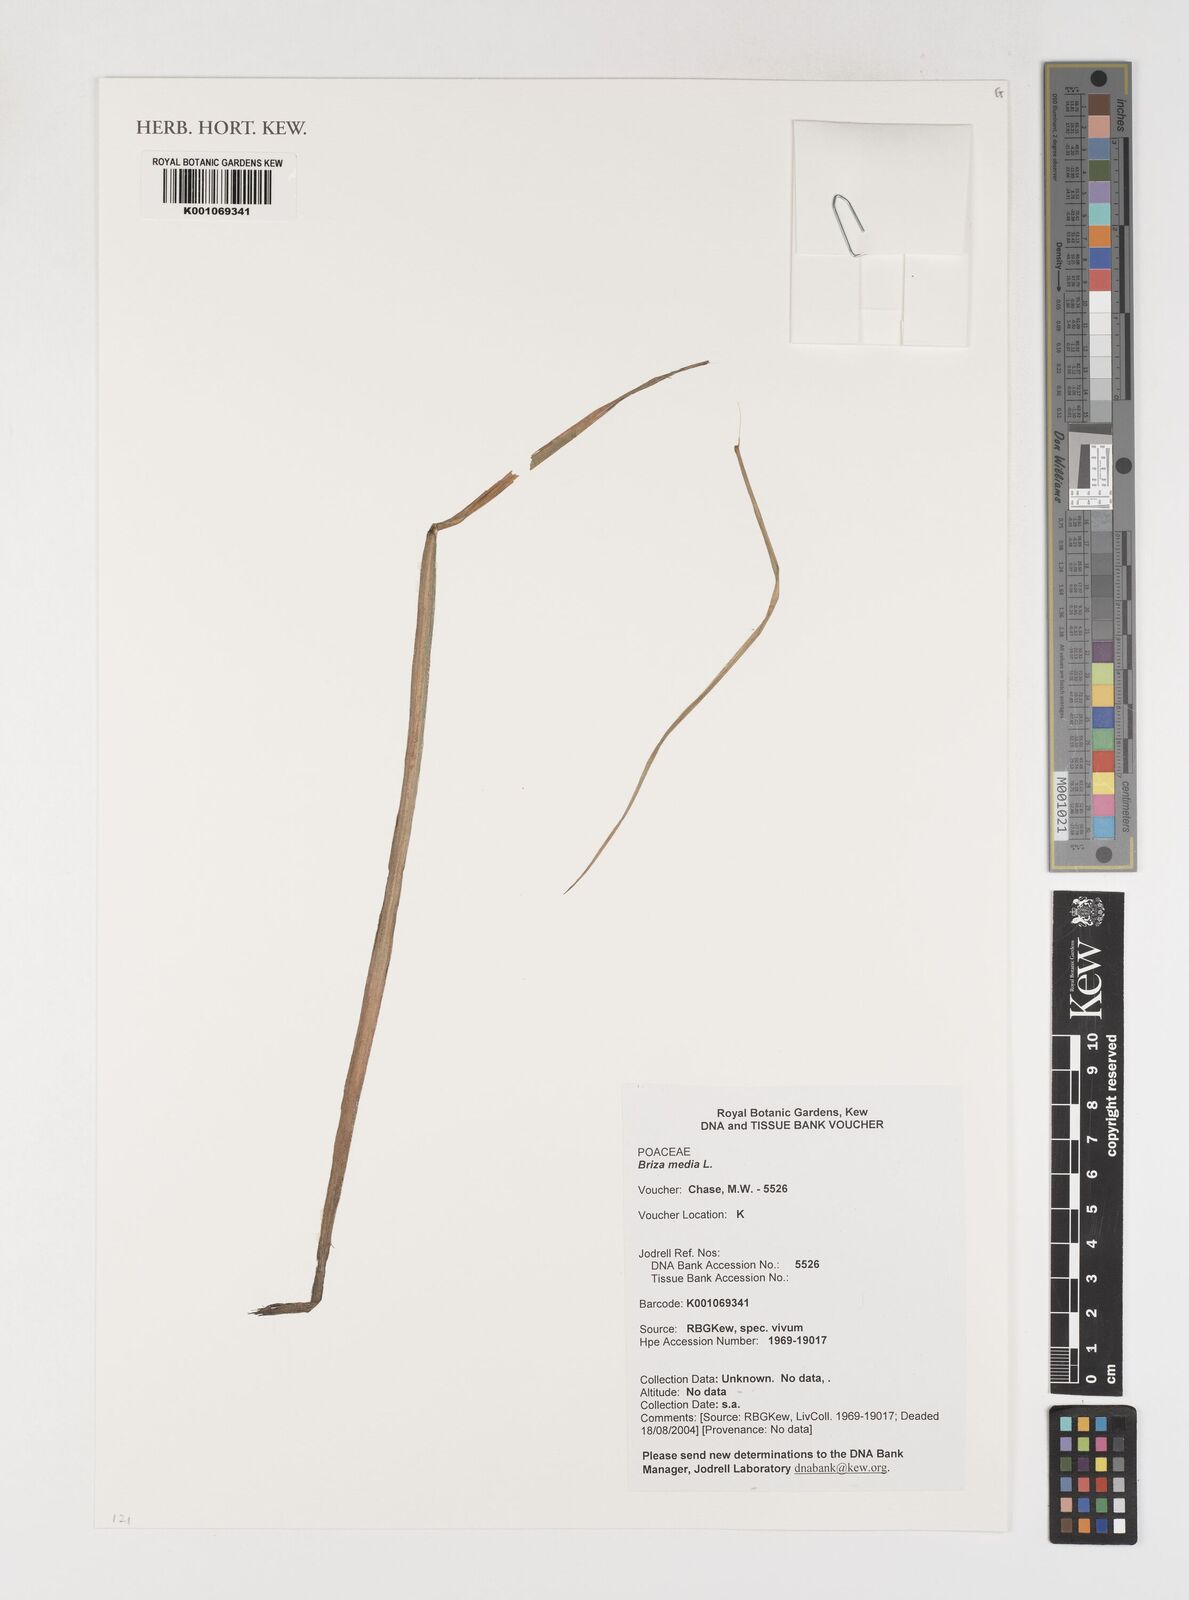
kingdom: Plantae
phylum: Tracheophyta
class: Liliopsida
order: Poales
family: Poaceae
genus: Briza
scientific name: Briza media
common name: Quaking grass
